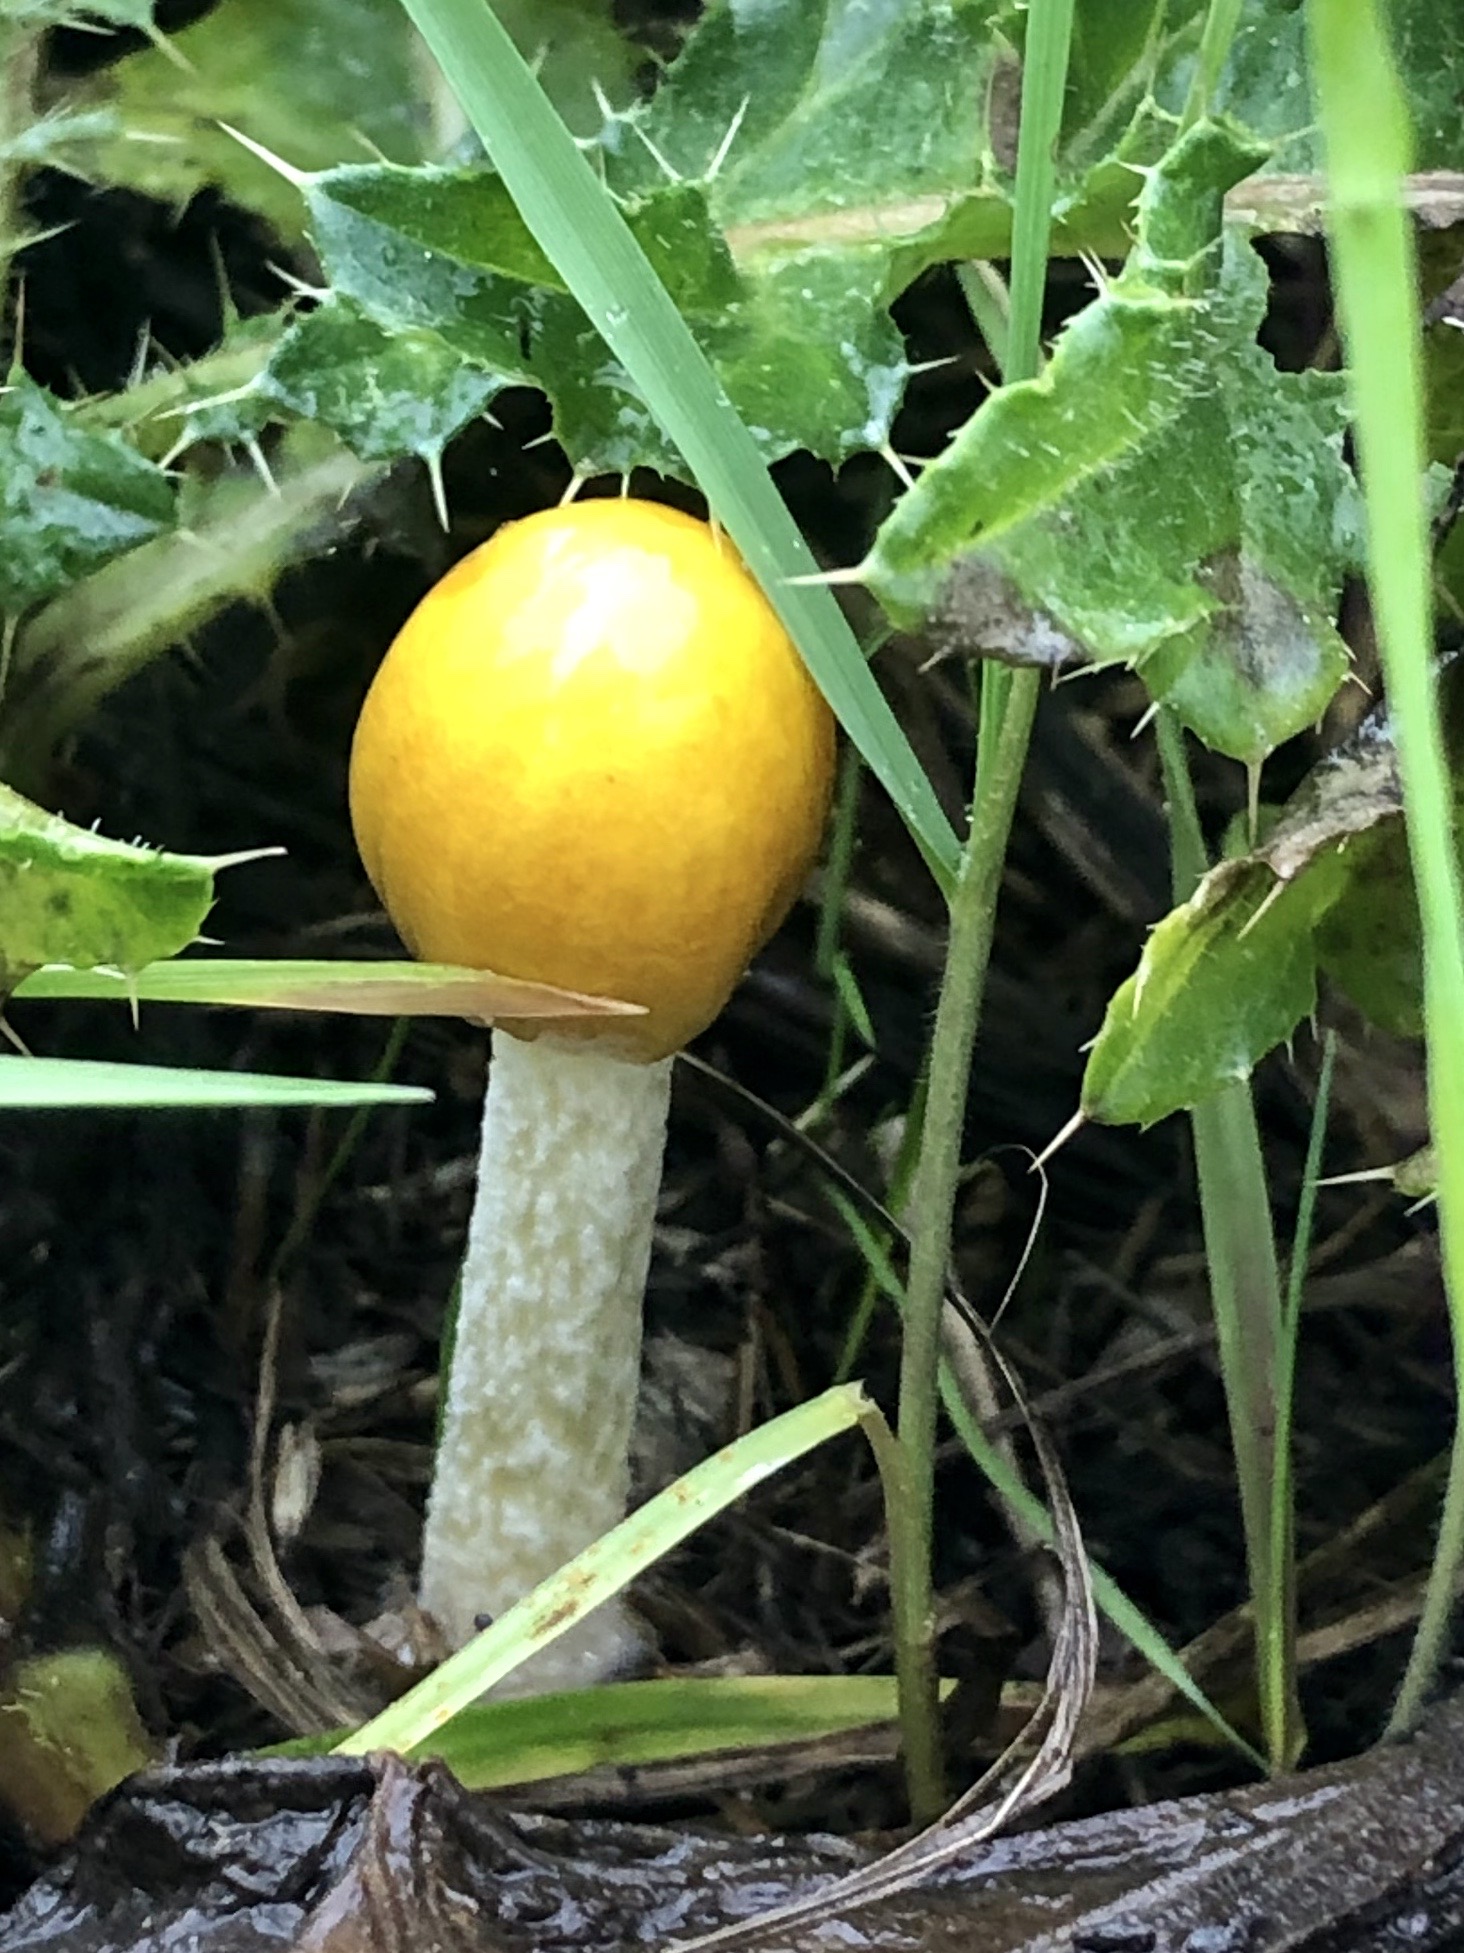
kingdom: Fungi
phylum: Basidiomycota
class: Agaricomycetes
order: Agaricales
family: Bolbitiaceae
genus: Bolbitius
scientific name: Bolbitius titubans
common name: almindelig gulhat
